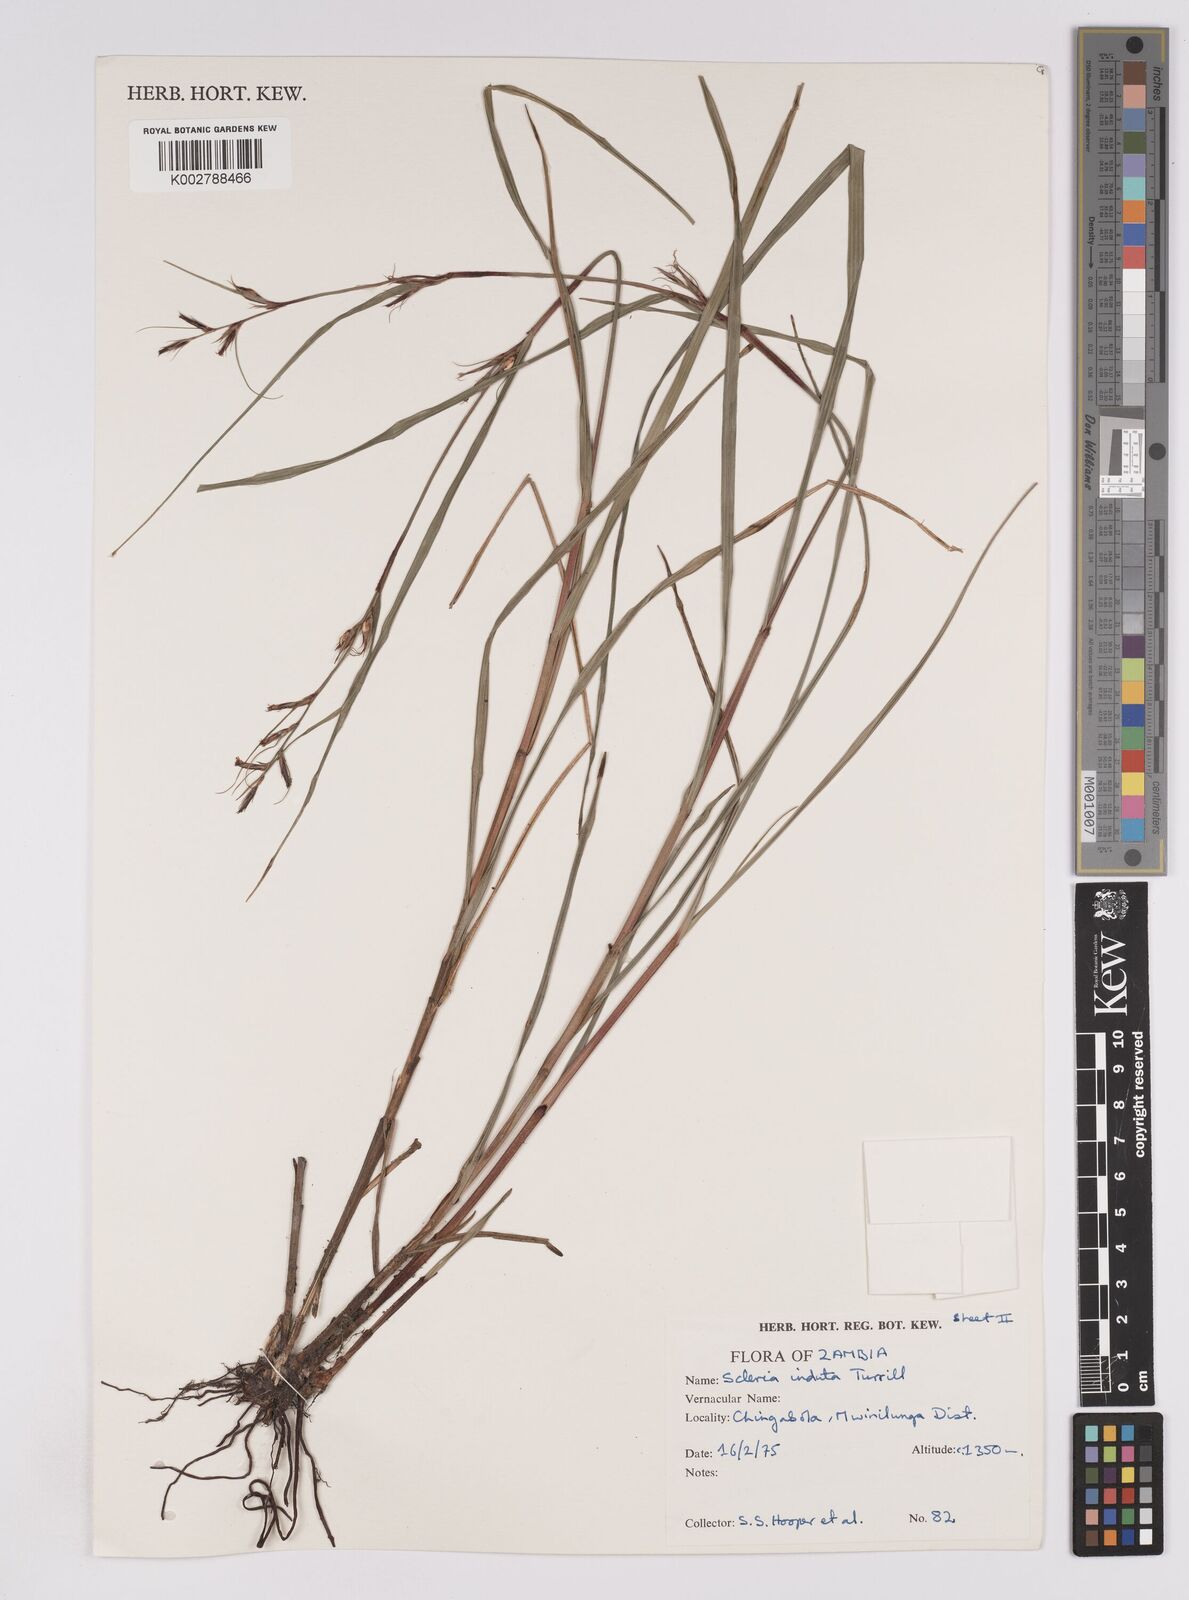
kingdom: Plantae
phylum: Tracheophyta
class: Liliopsida
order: Poales
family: Cyperaceae
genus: Scleria
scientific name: Scleria induta
